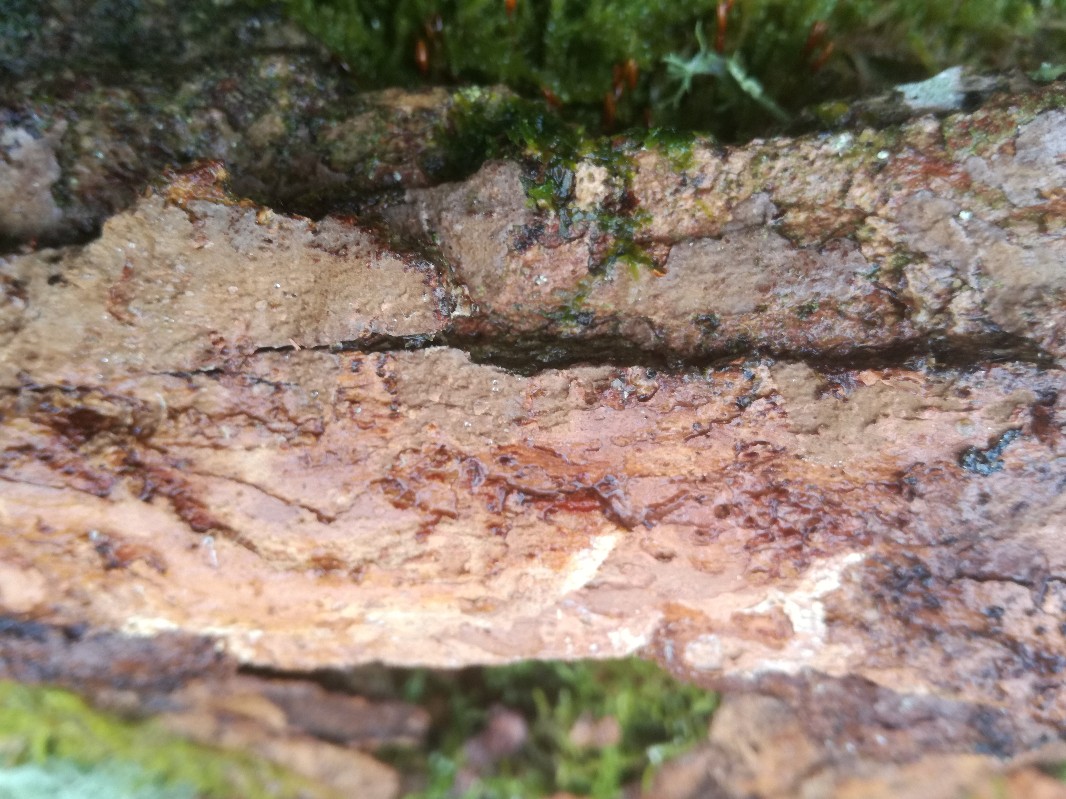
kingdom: Fungi
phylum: Basidiomycota
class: Agaricomycetes
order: Hymenochaetales
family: Hymenochaetaceae
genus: Hymenochaete
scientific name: Hymenochaete carpatica
